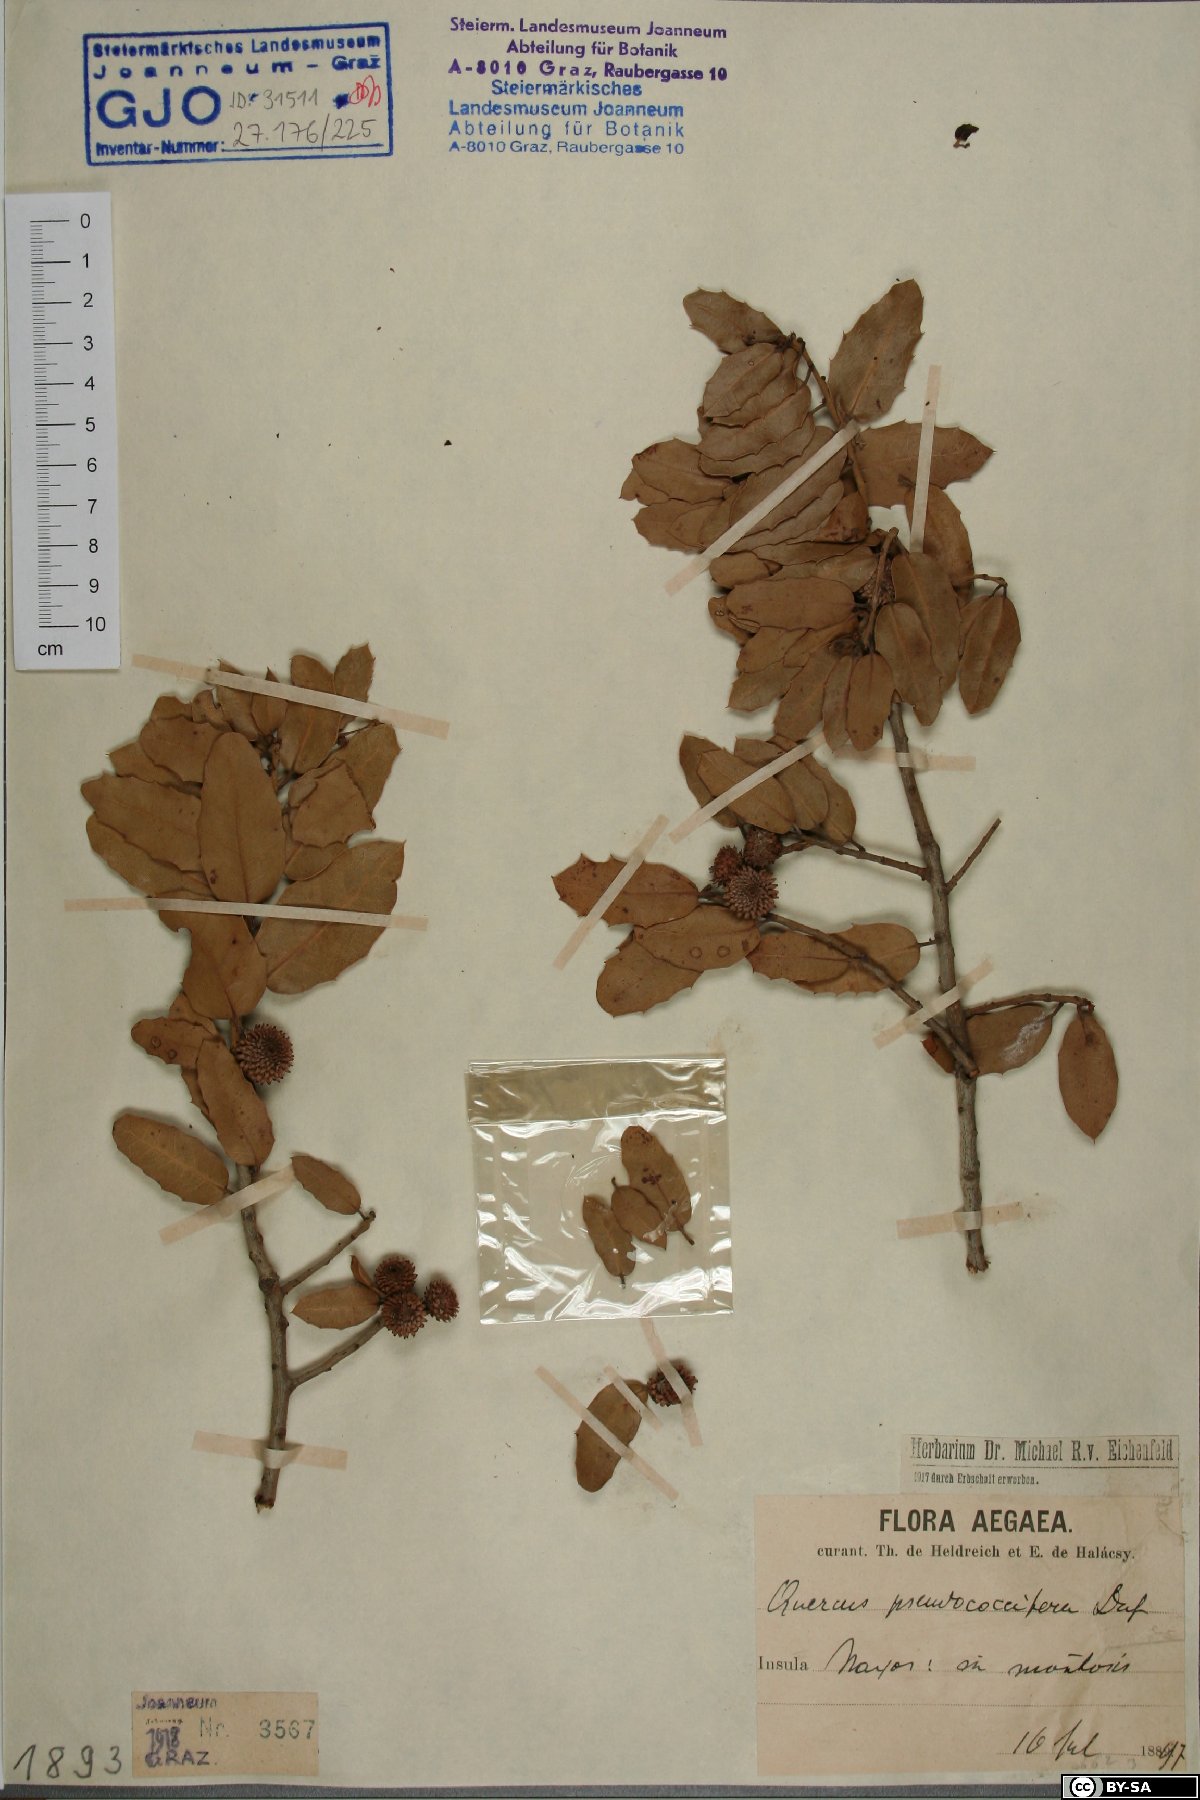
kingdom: Plantae
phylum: Tracheophyta
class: Magnoliopsida
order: Fagales
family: Fagaceae
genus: Quercus
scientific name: Quercus pseudococcifera
